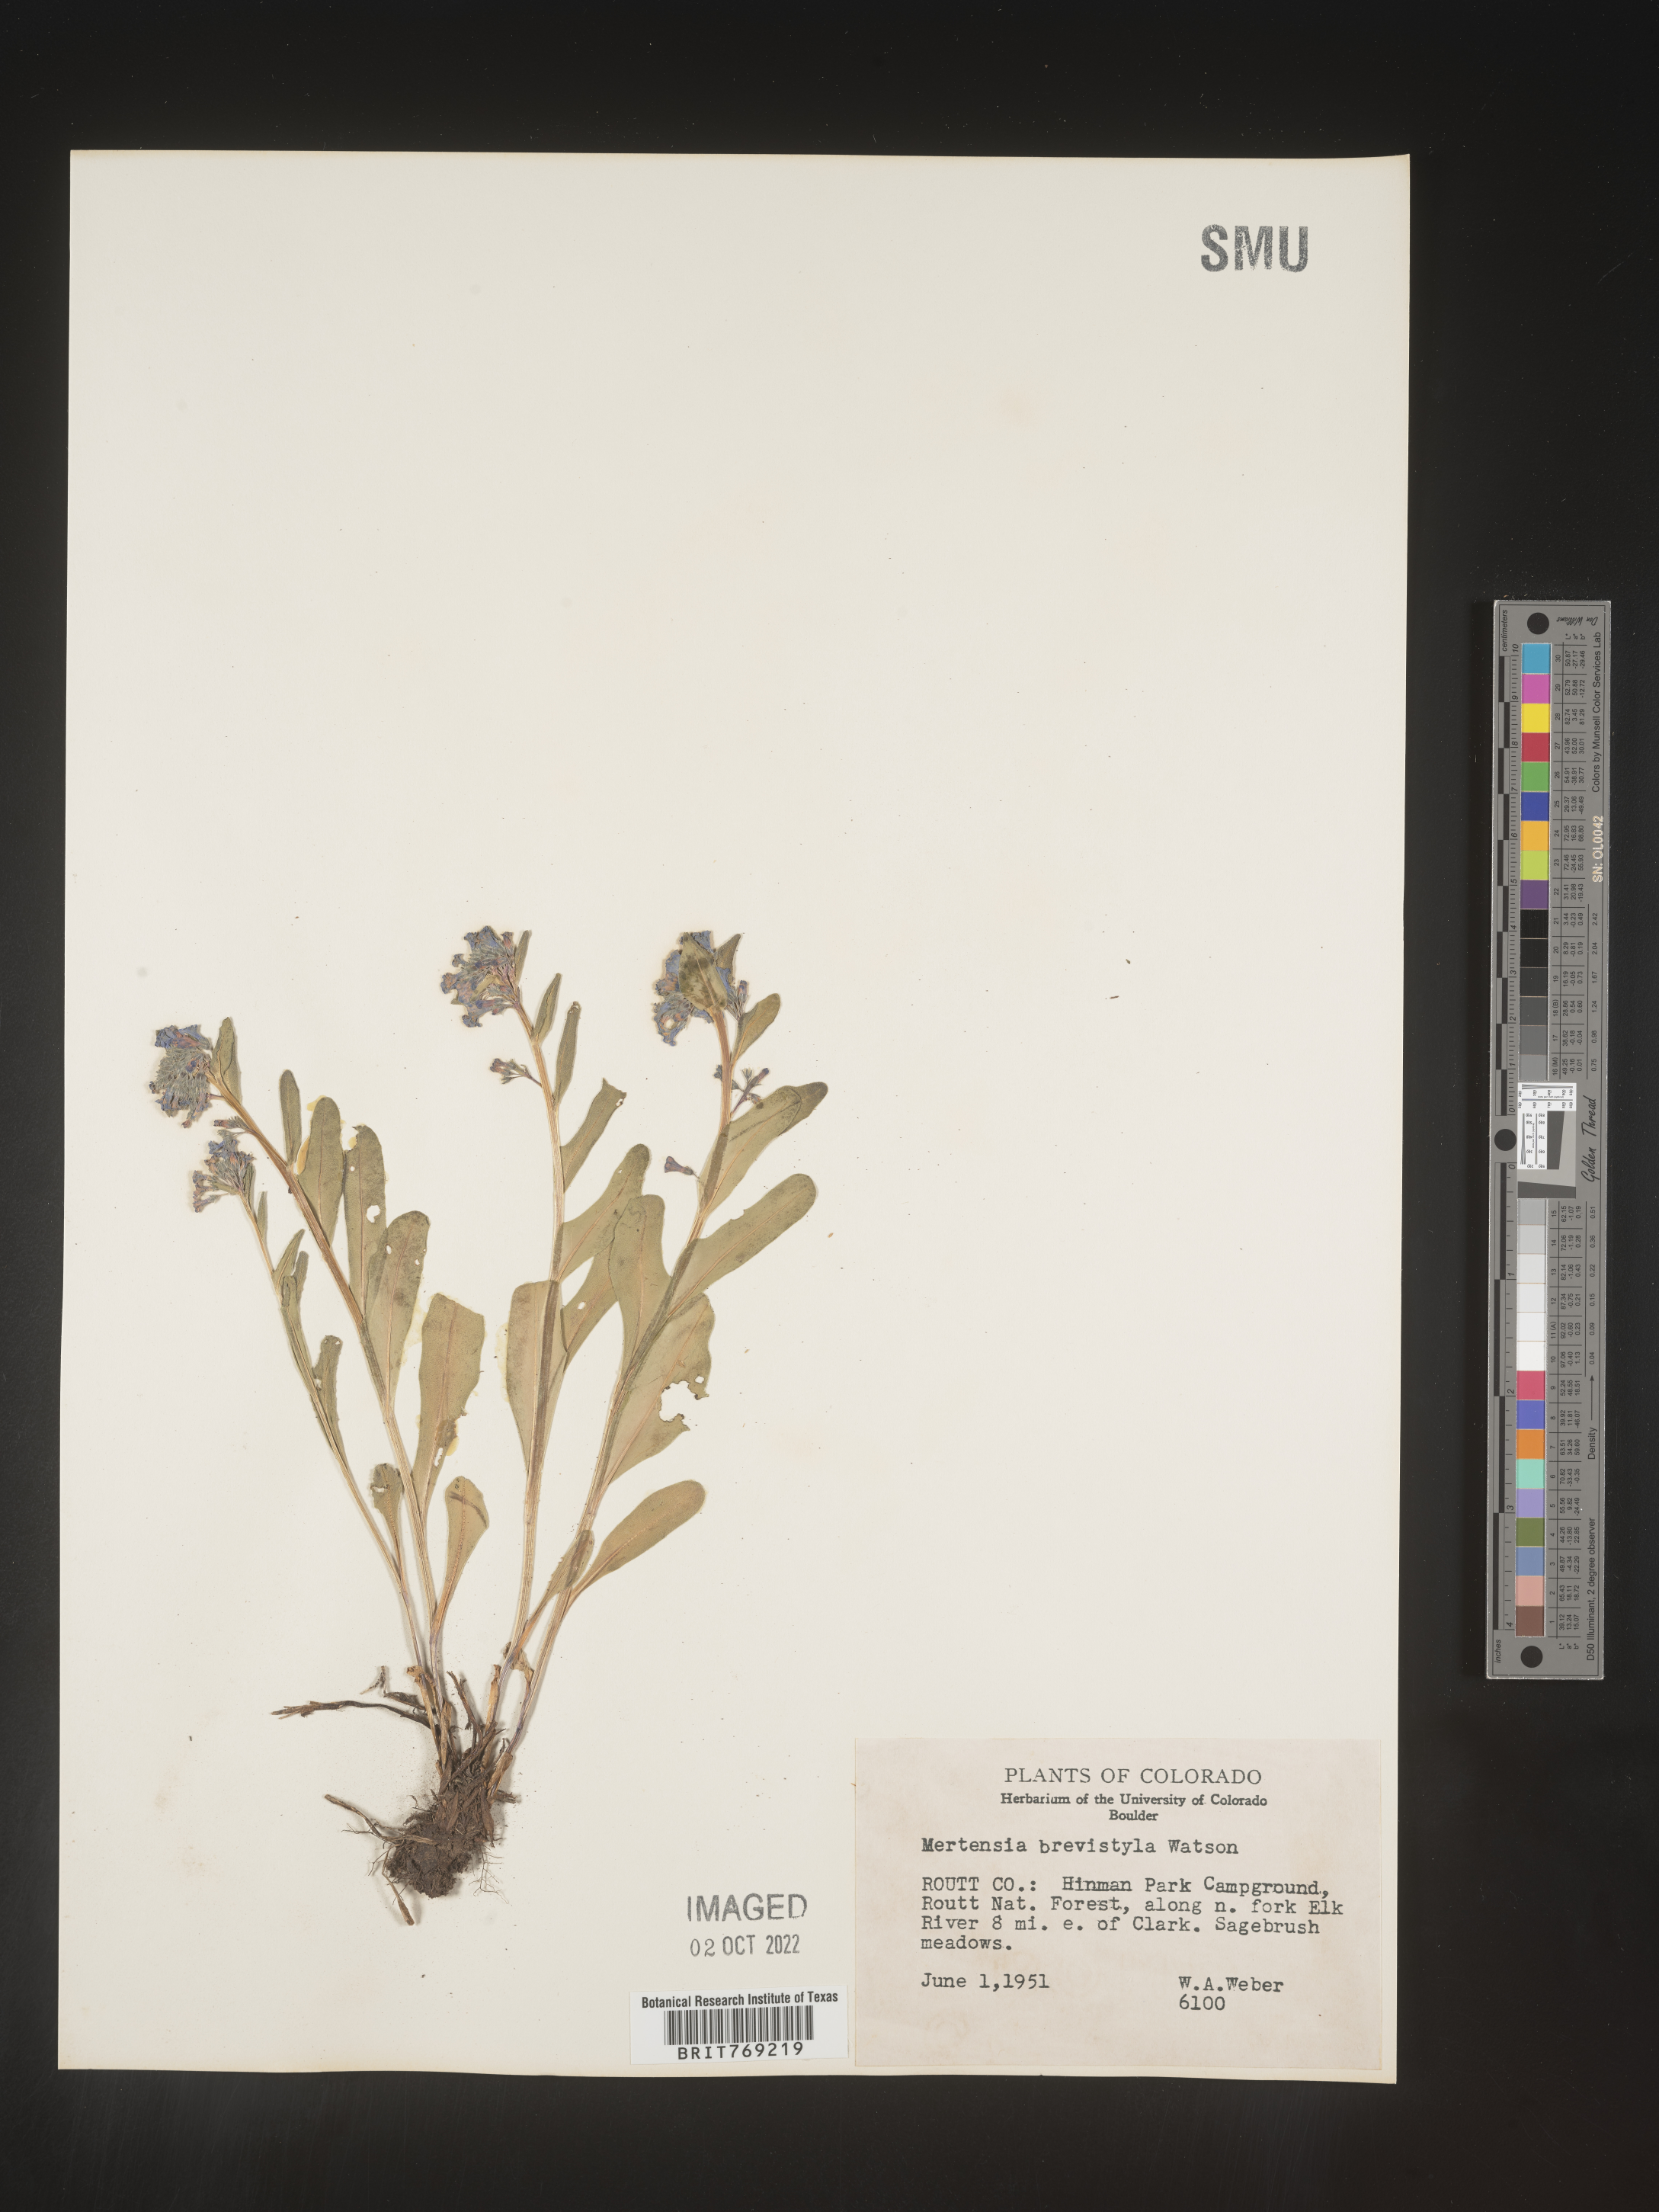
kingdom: Plantae
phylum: Tracheophyta
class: Magnoliopsida
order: Boraginales
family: Boraginaceae
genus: Mertensia
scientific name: Mertensia
